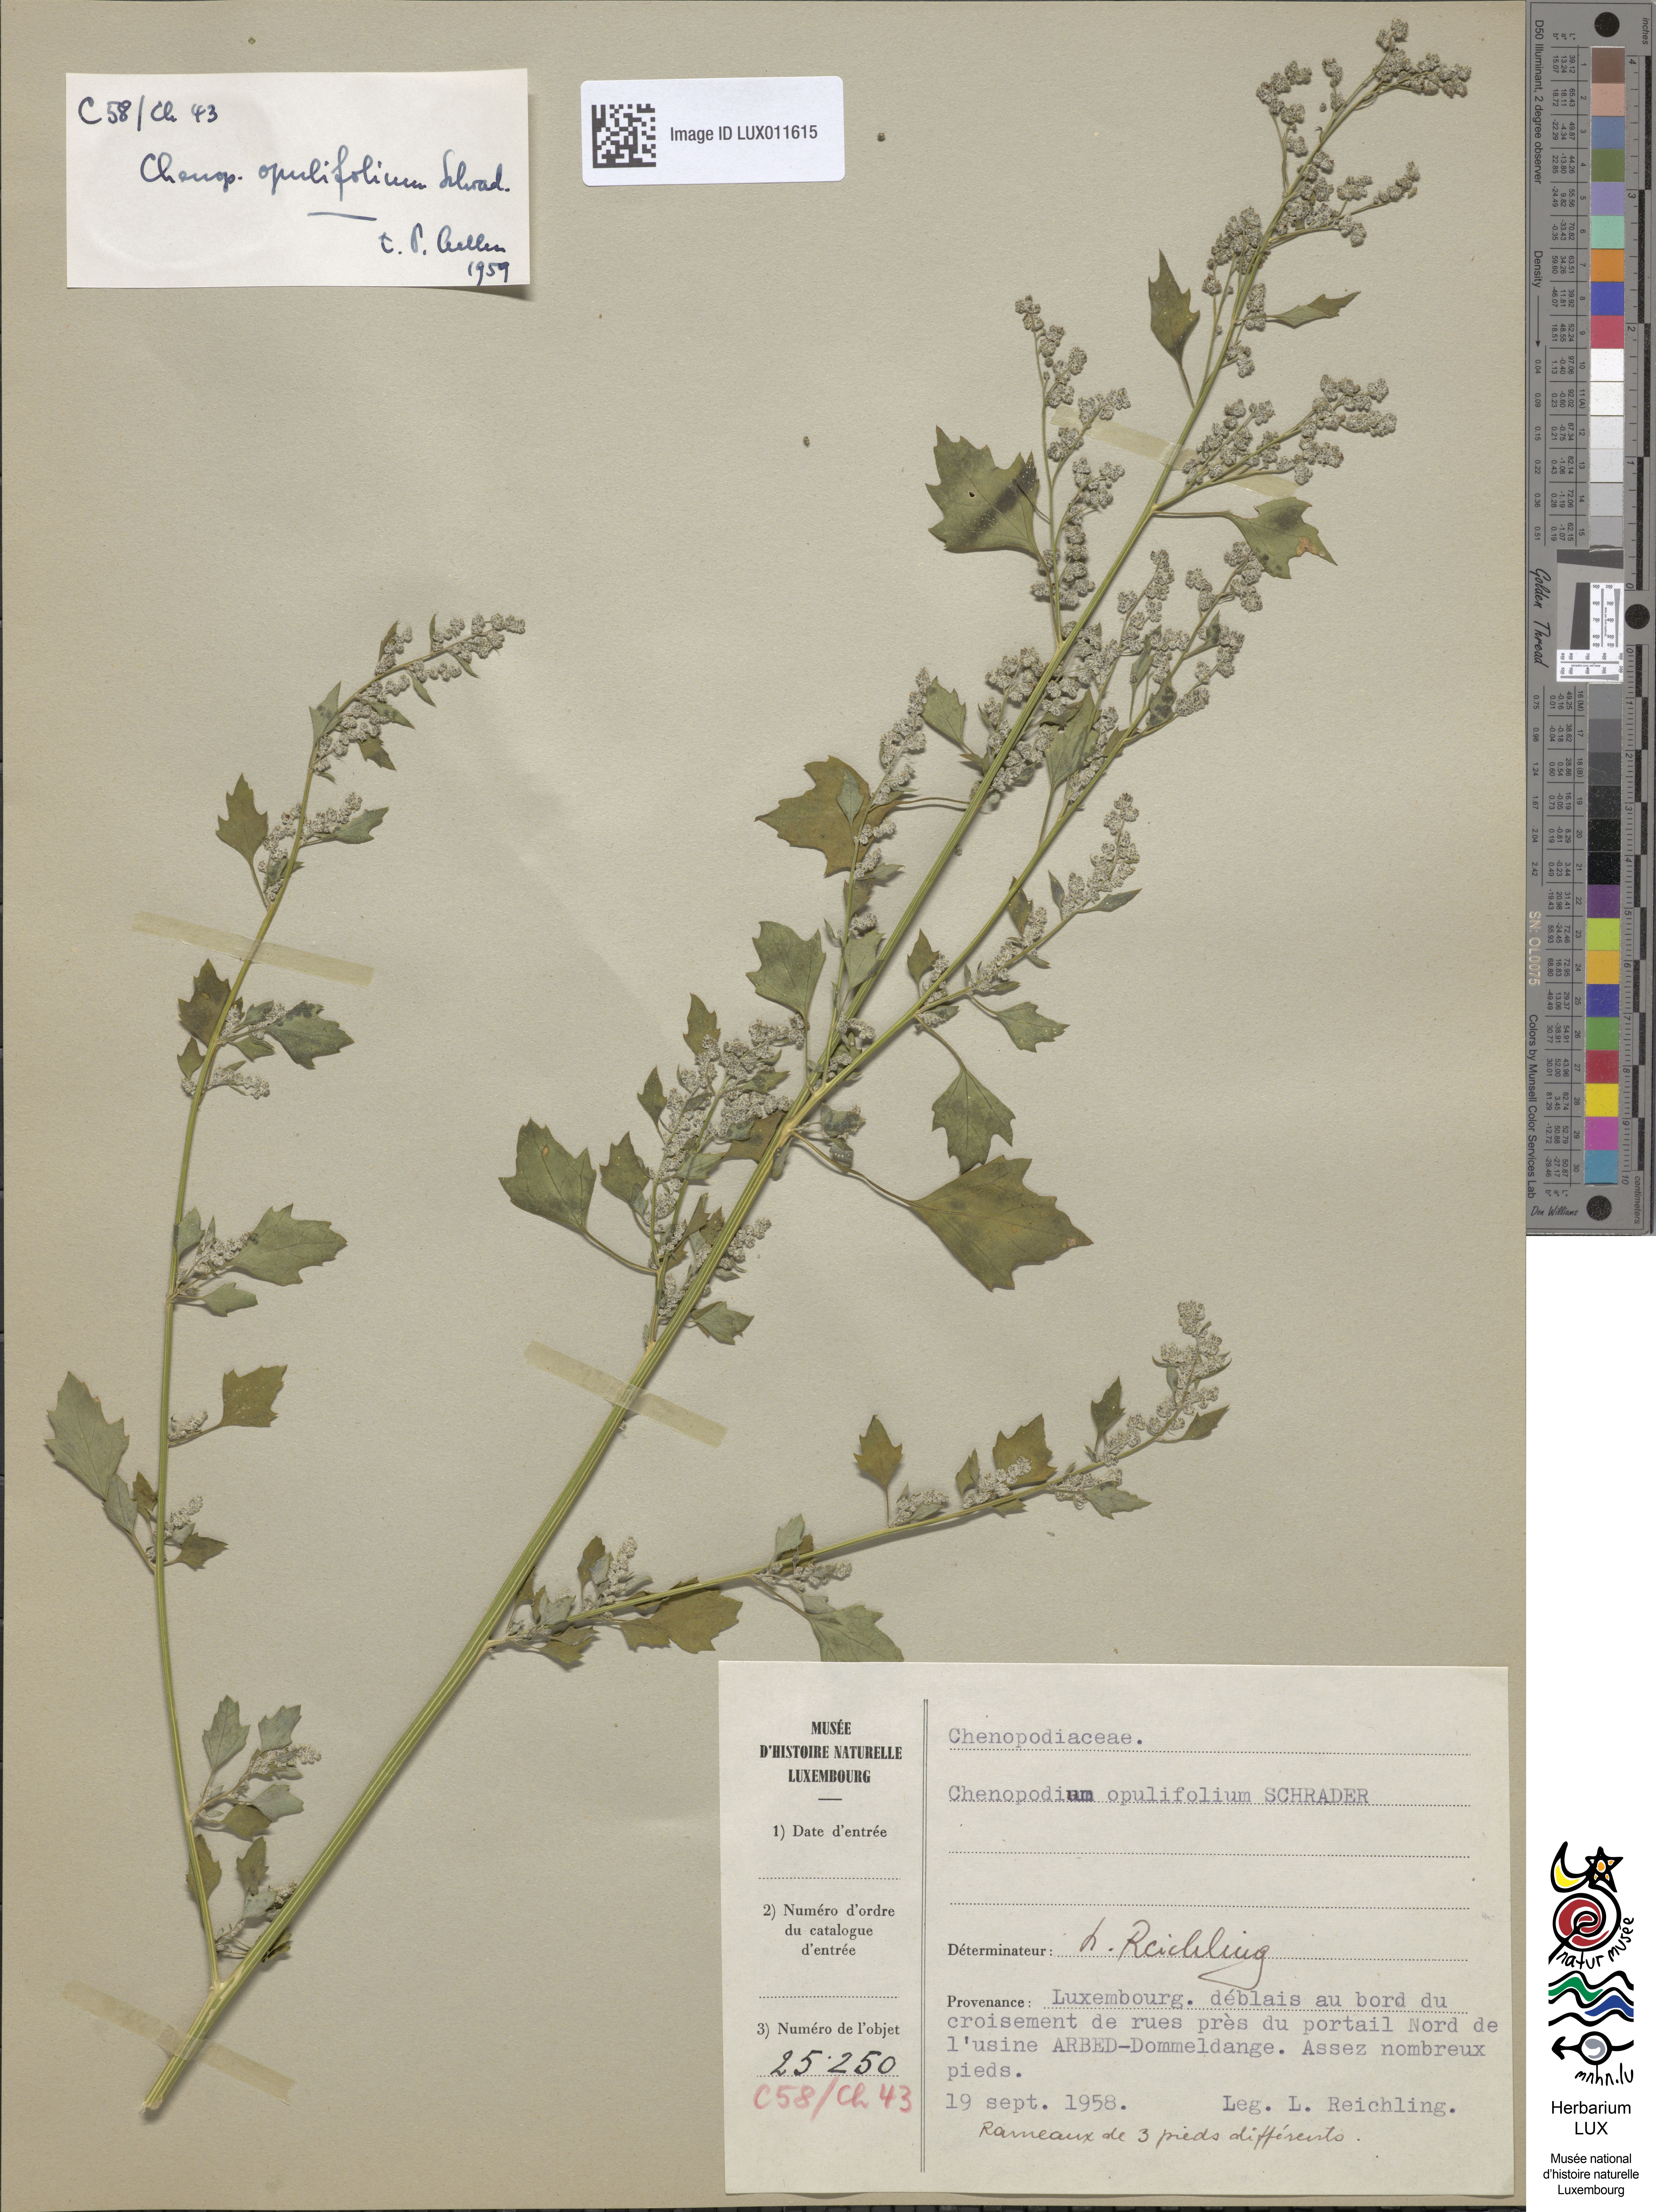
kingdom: Plantae
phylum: Tracheophyta
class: Magnoliopsida
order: Caryophyllales
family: Amaranthaceae
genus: Chenopodium
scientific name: Chenopodium opulifolium
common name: Grey goosefoot
